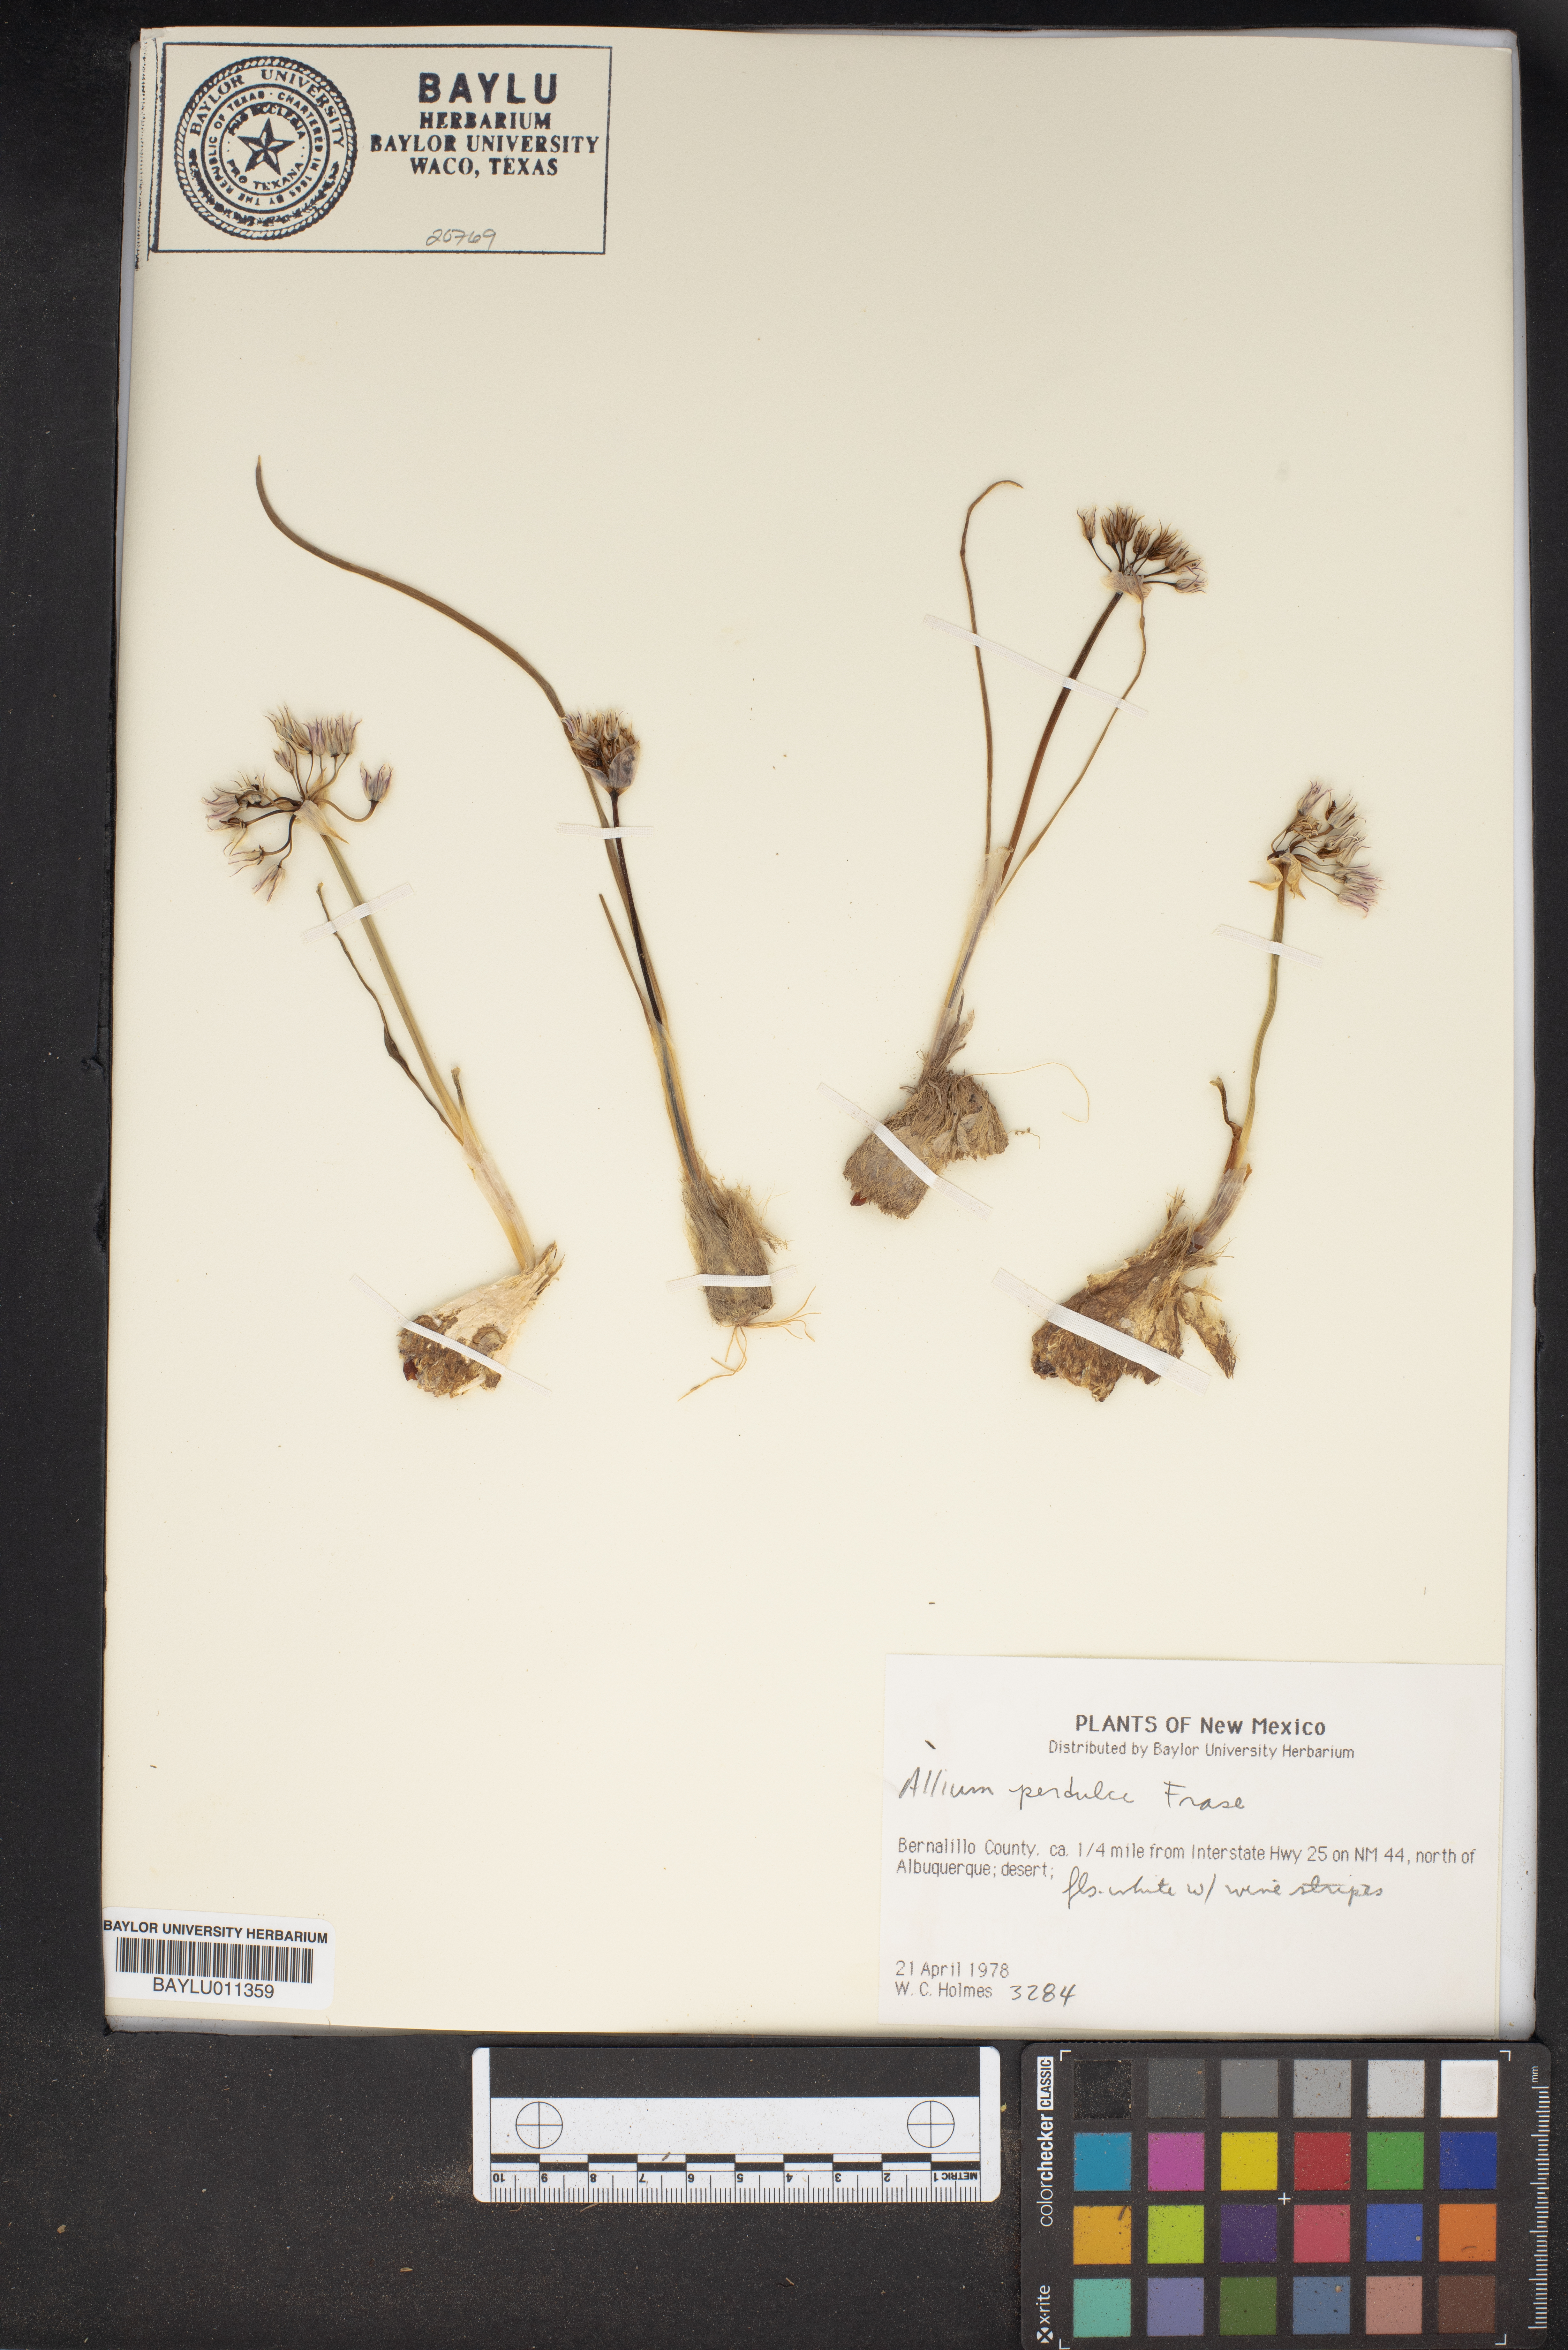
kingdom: Plantae
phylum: Tracheophyta
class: Liliopsida
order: Asparagales
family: Amaryllidaceae
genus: Allium
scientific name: Allium perdulce
